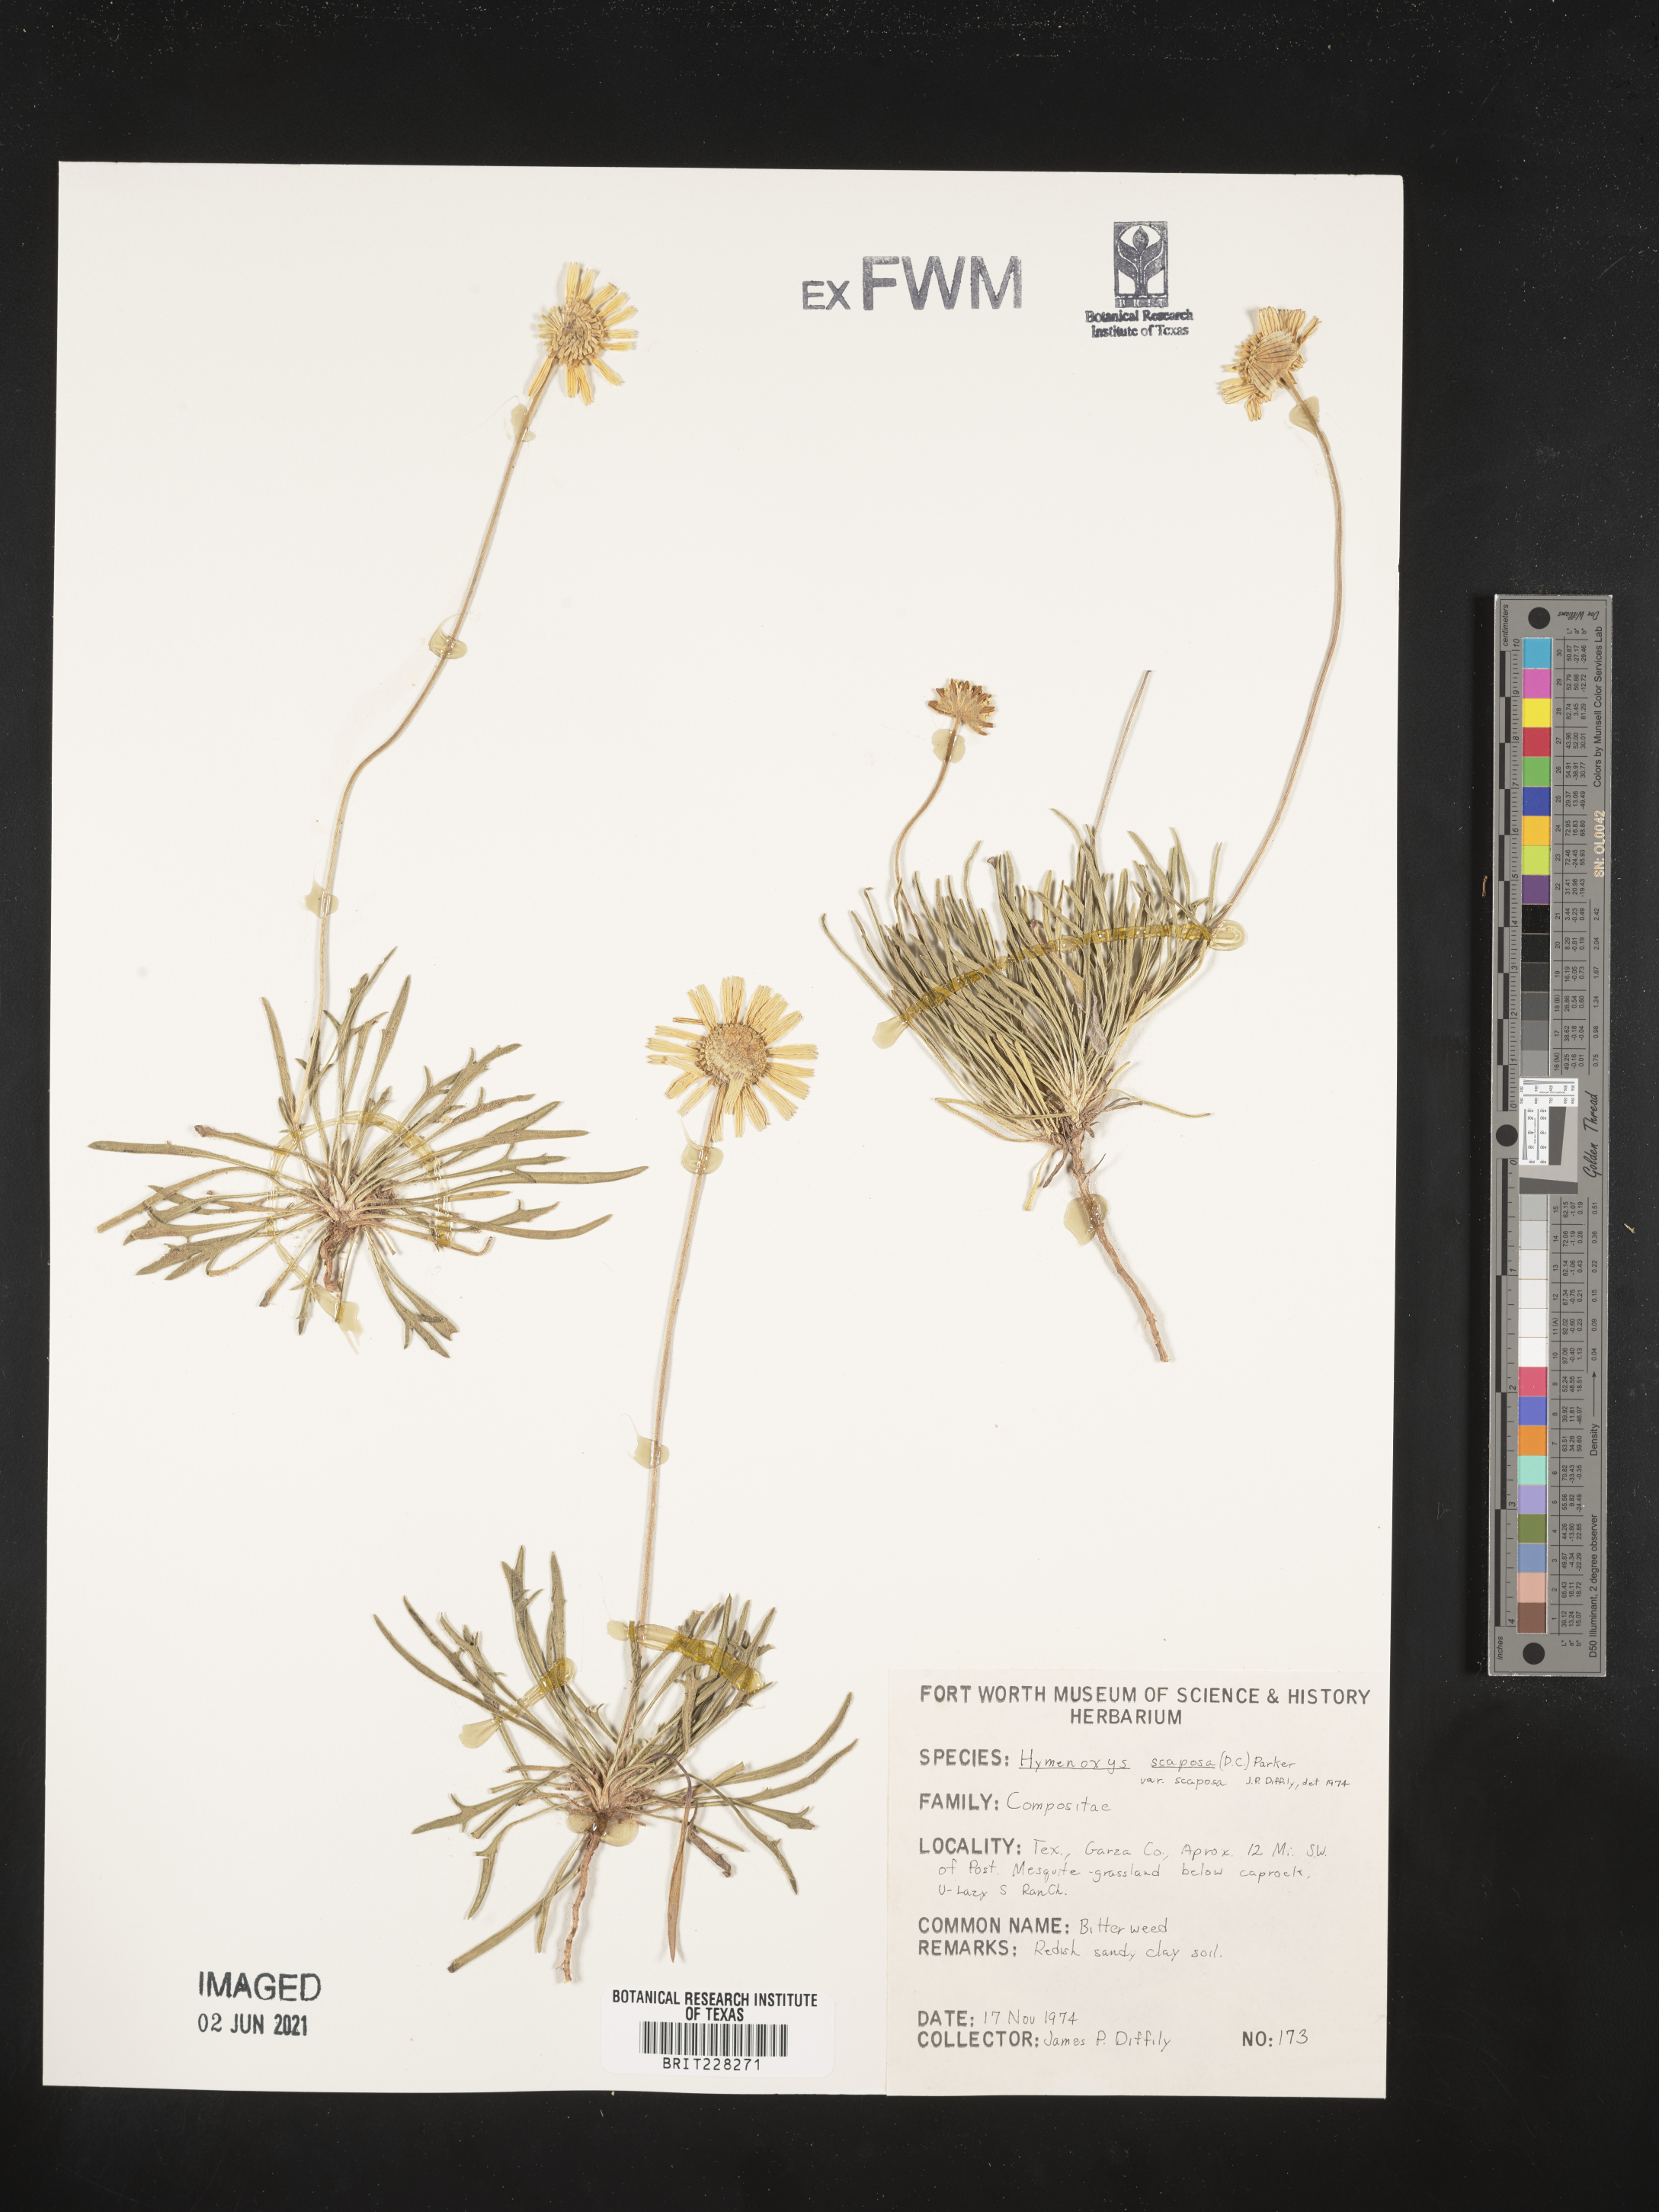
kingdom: Plantae
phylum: Tracheophyta
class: Magnoliopsida
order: Asterales
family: Asteraceae
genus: Tetraneuris
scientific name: Tetraneuris scaposa
